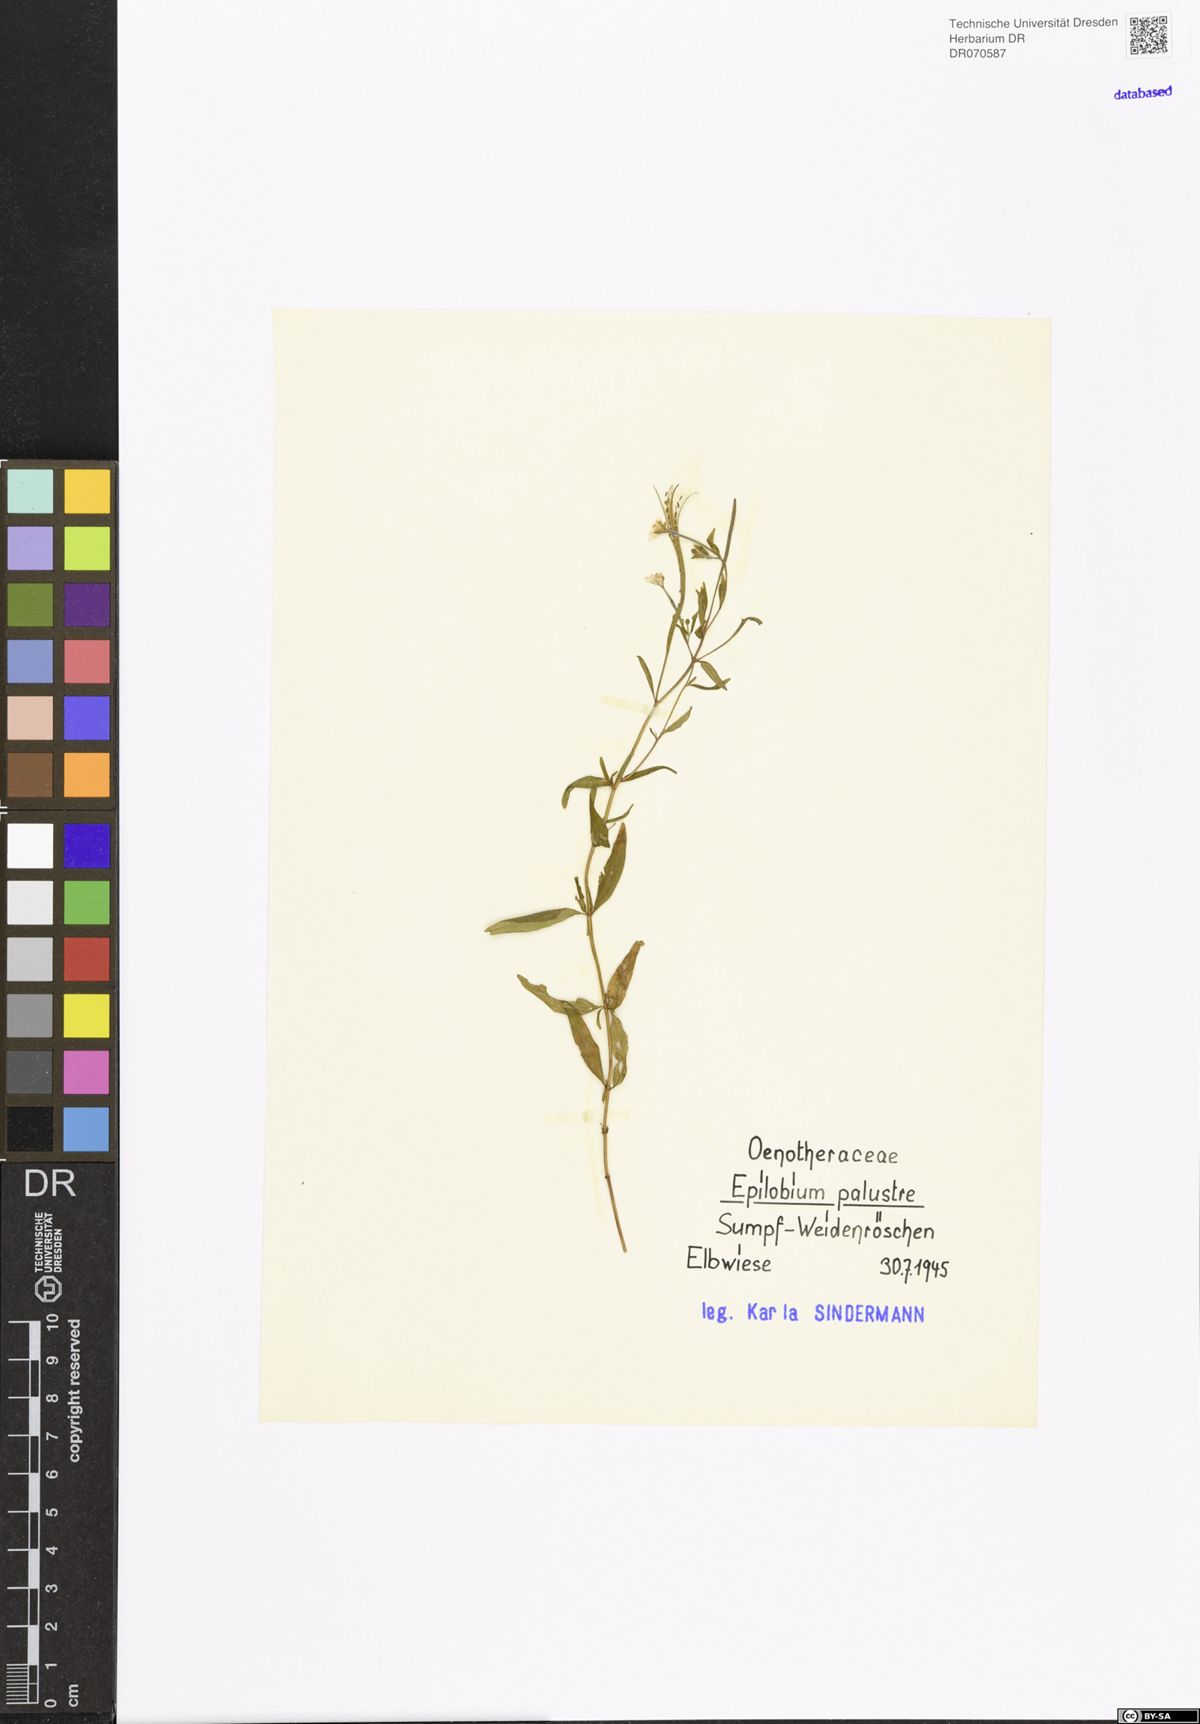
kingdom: Plantae
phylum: Tracheophyta
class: Magnoliopsida
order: Myrtales
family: Onagraceae
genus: Epilobium
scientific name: Epilobium palustre
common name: Marsh willowherb
